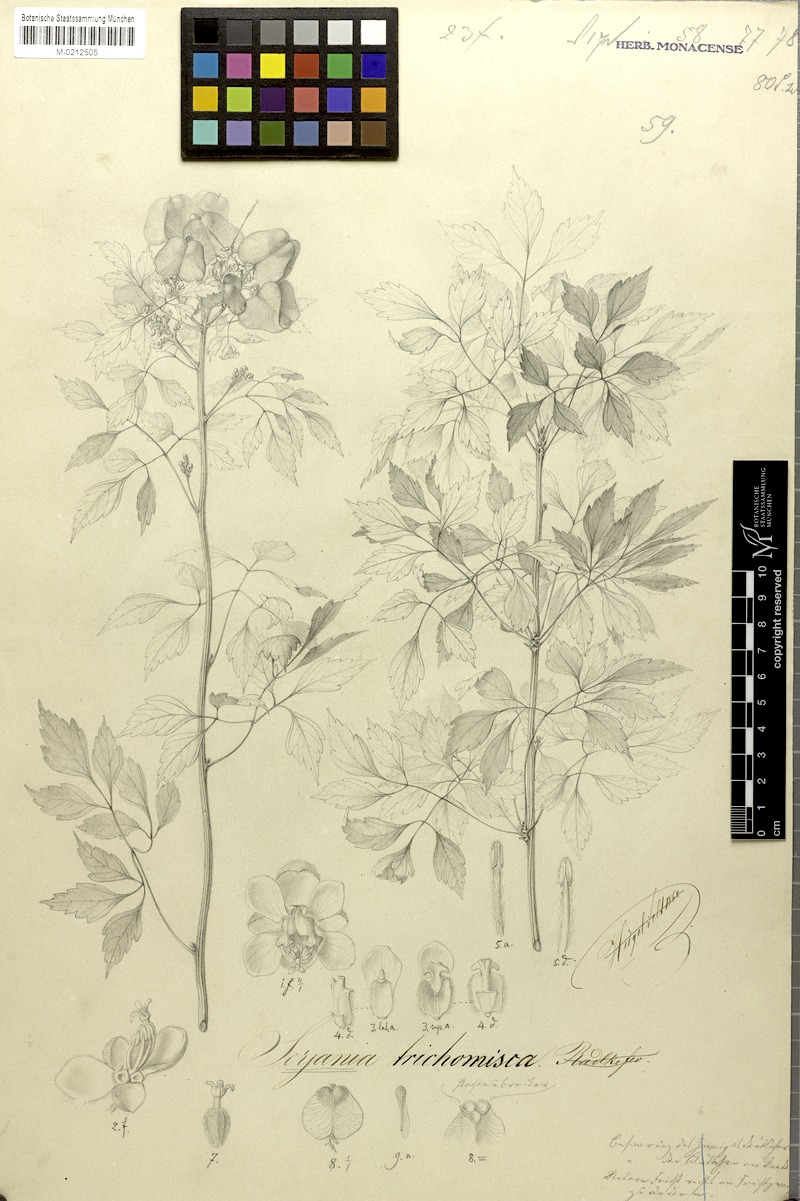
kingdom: Plantae
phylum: Tracheophyta
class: Magnoliopsida
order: Sapindales
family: Sapindaceae
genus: Serjania
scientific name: Serjania trichomisca
